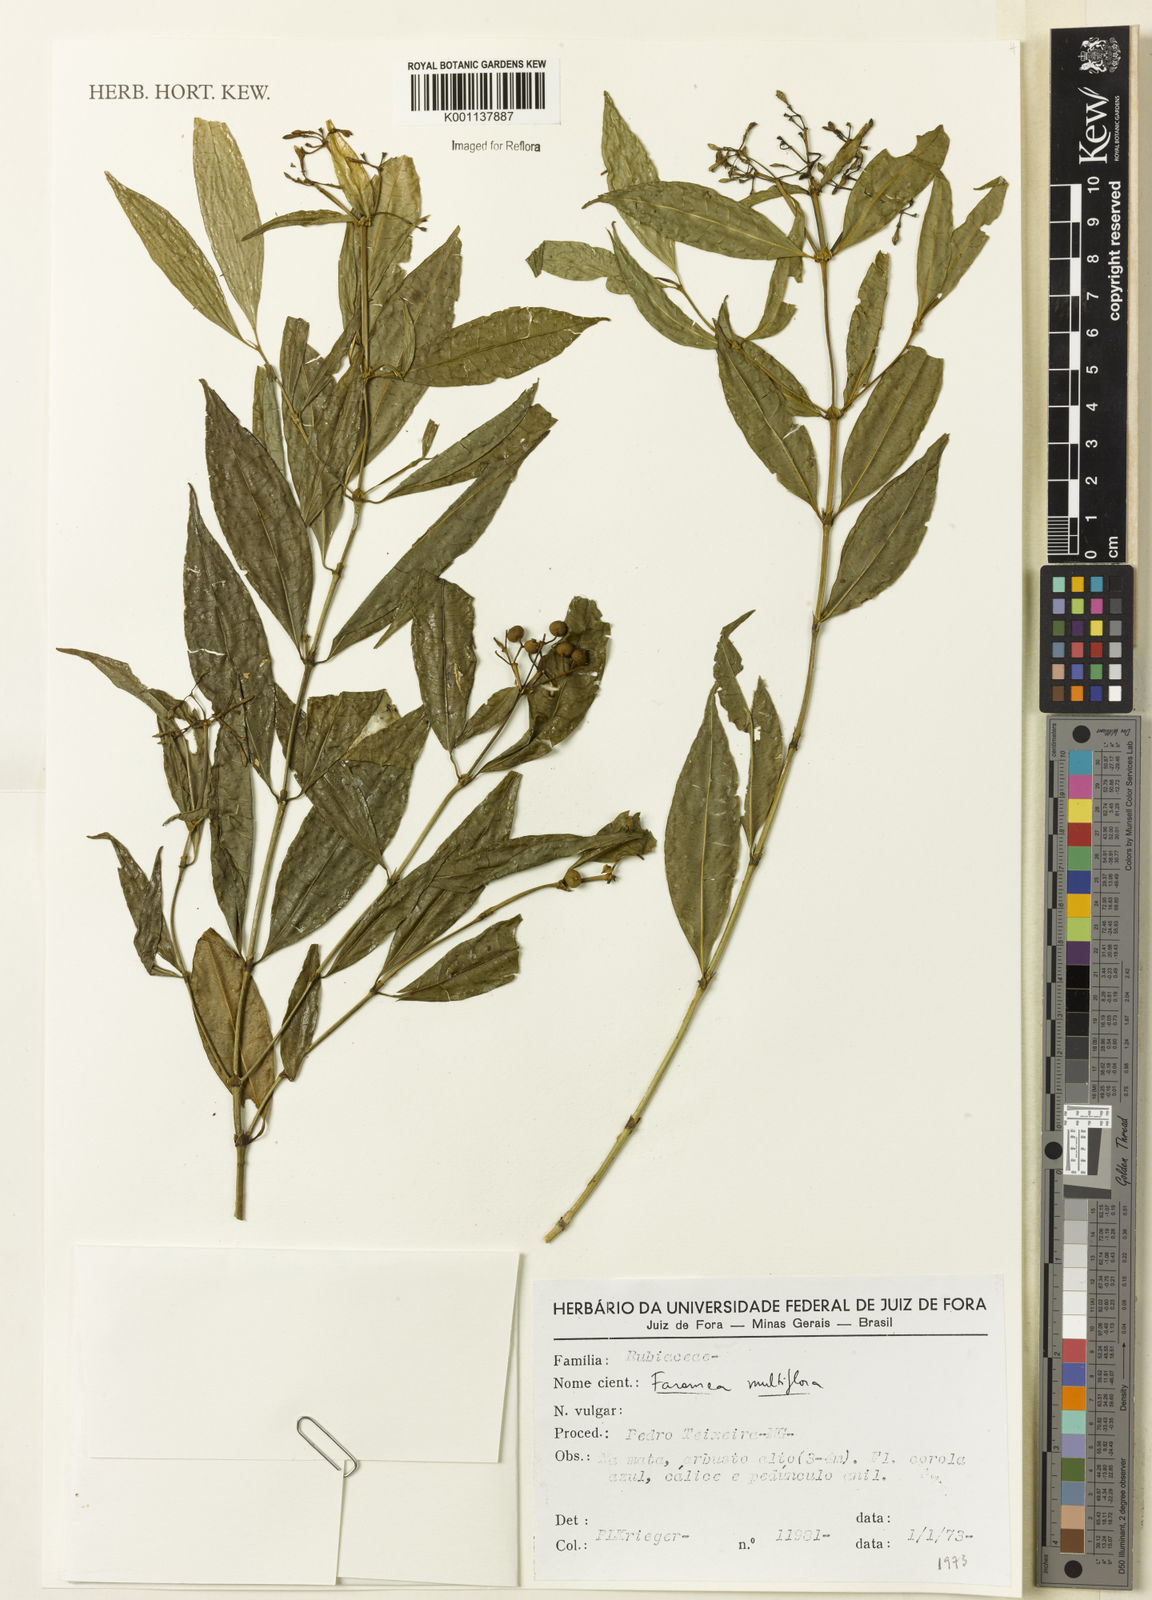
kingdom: Plantae
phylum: Tracheophyta
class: Magnoliopsida
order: Gentianales
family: Rubiaceae
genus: Faramea
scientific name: Faramea multiflora
